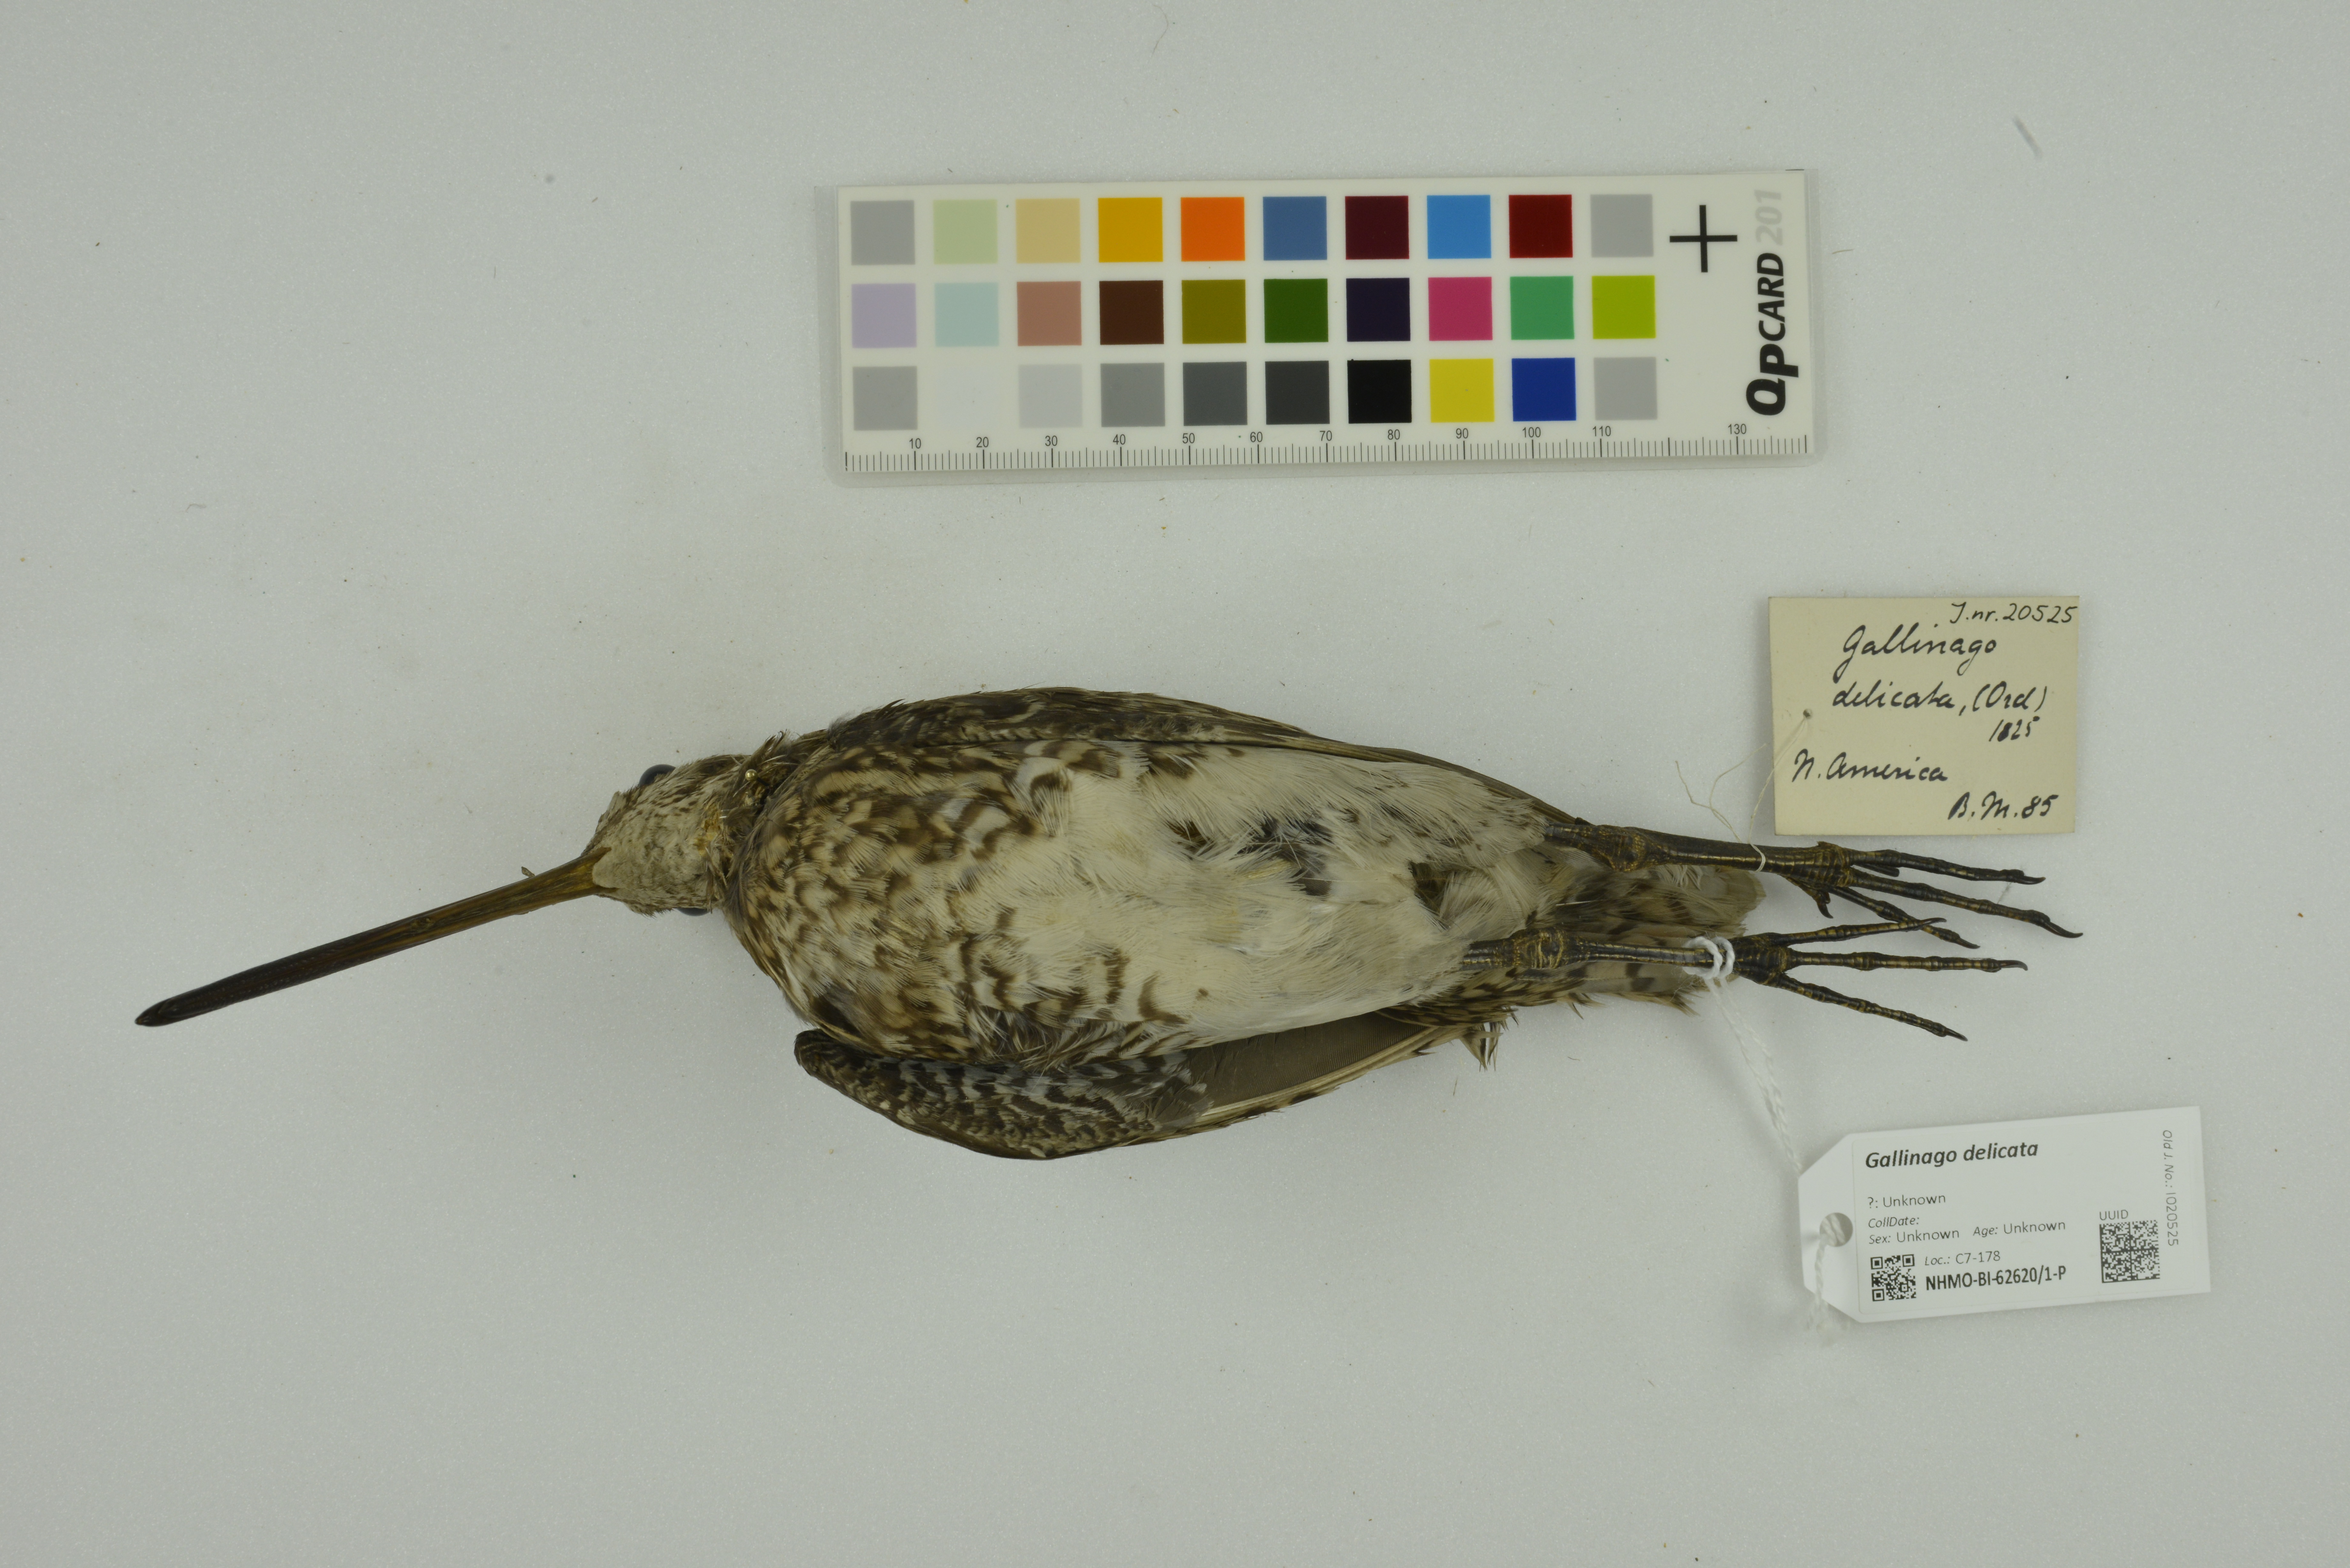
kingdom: Animalia
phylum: Chordata
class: Aves
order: Charadriiformes
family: Scolopacidae
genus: Gallinago
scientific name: Gallinago delicata
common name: Wilson's snipe
